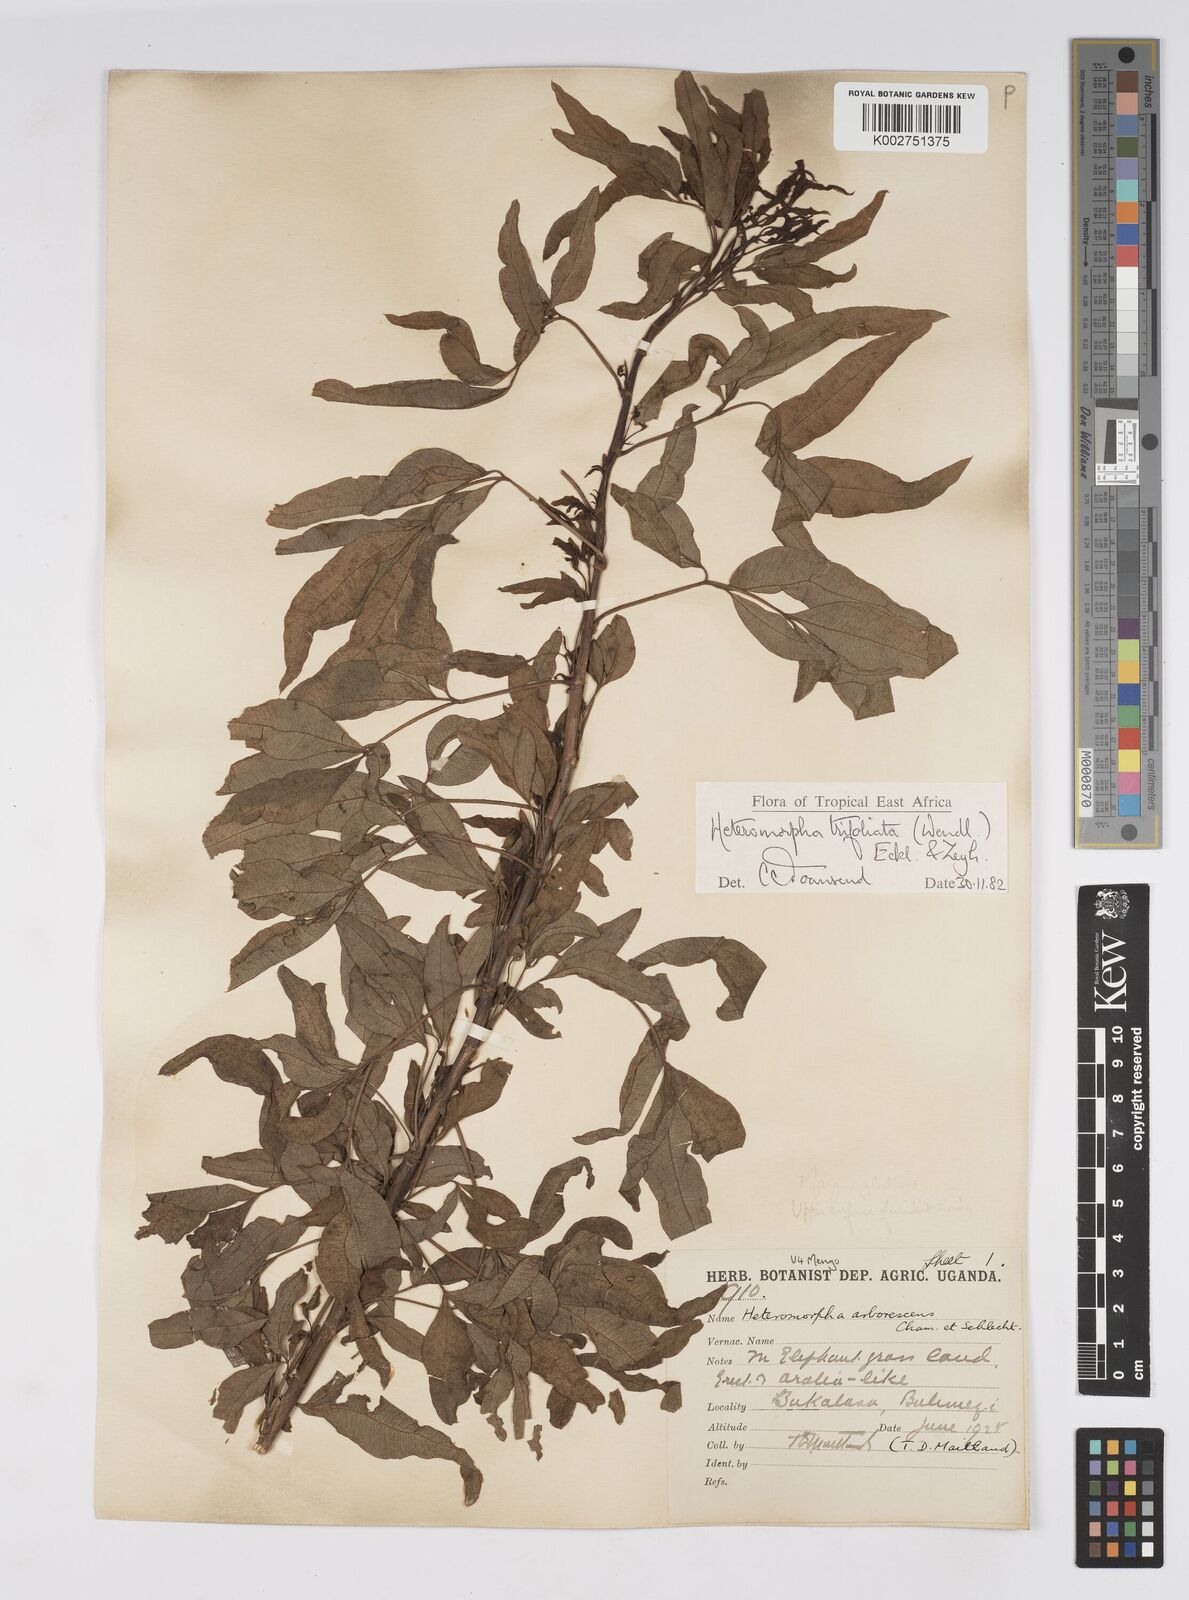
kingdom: Plantae
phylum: Tracheophyta
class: Magnoliopsida
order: Apiales
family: Apiaceae
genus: Heteromorpha
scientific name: Heteromorpha arborescens
